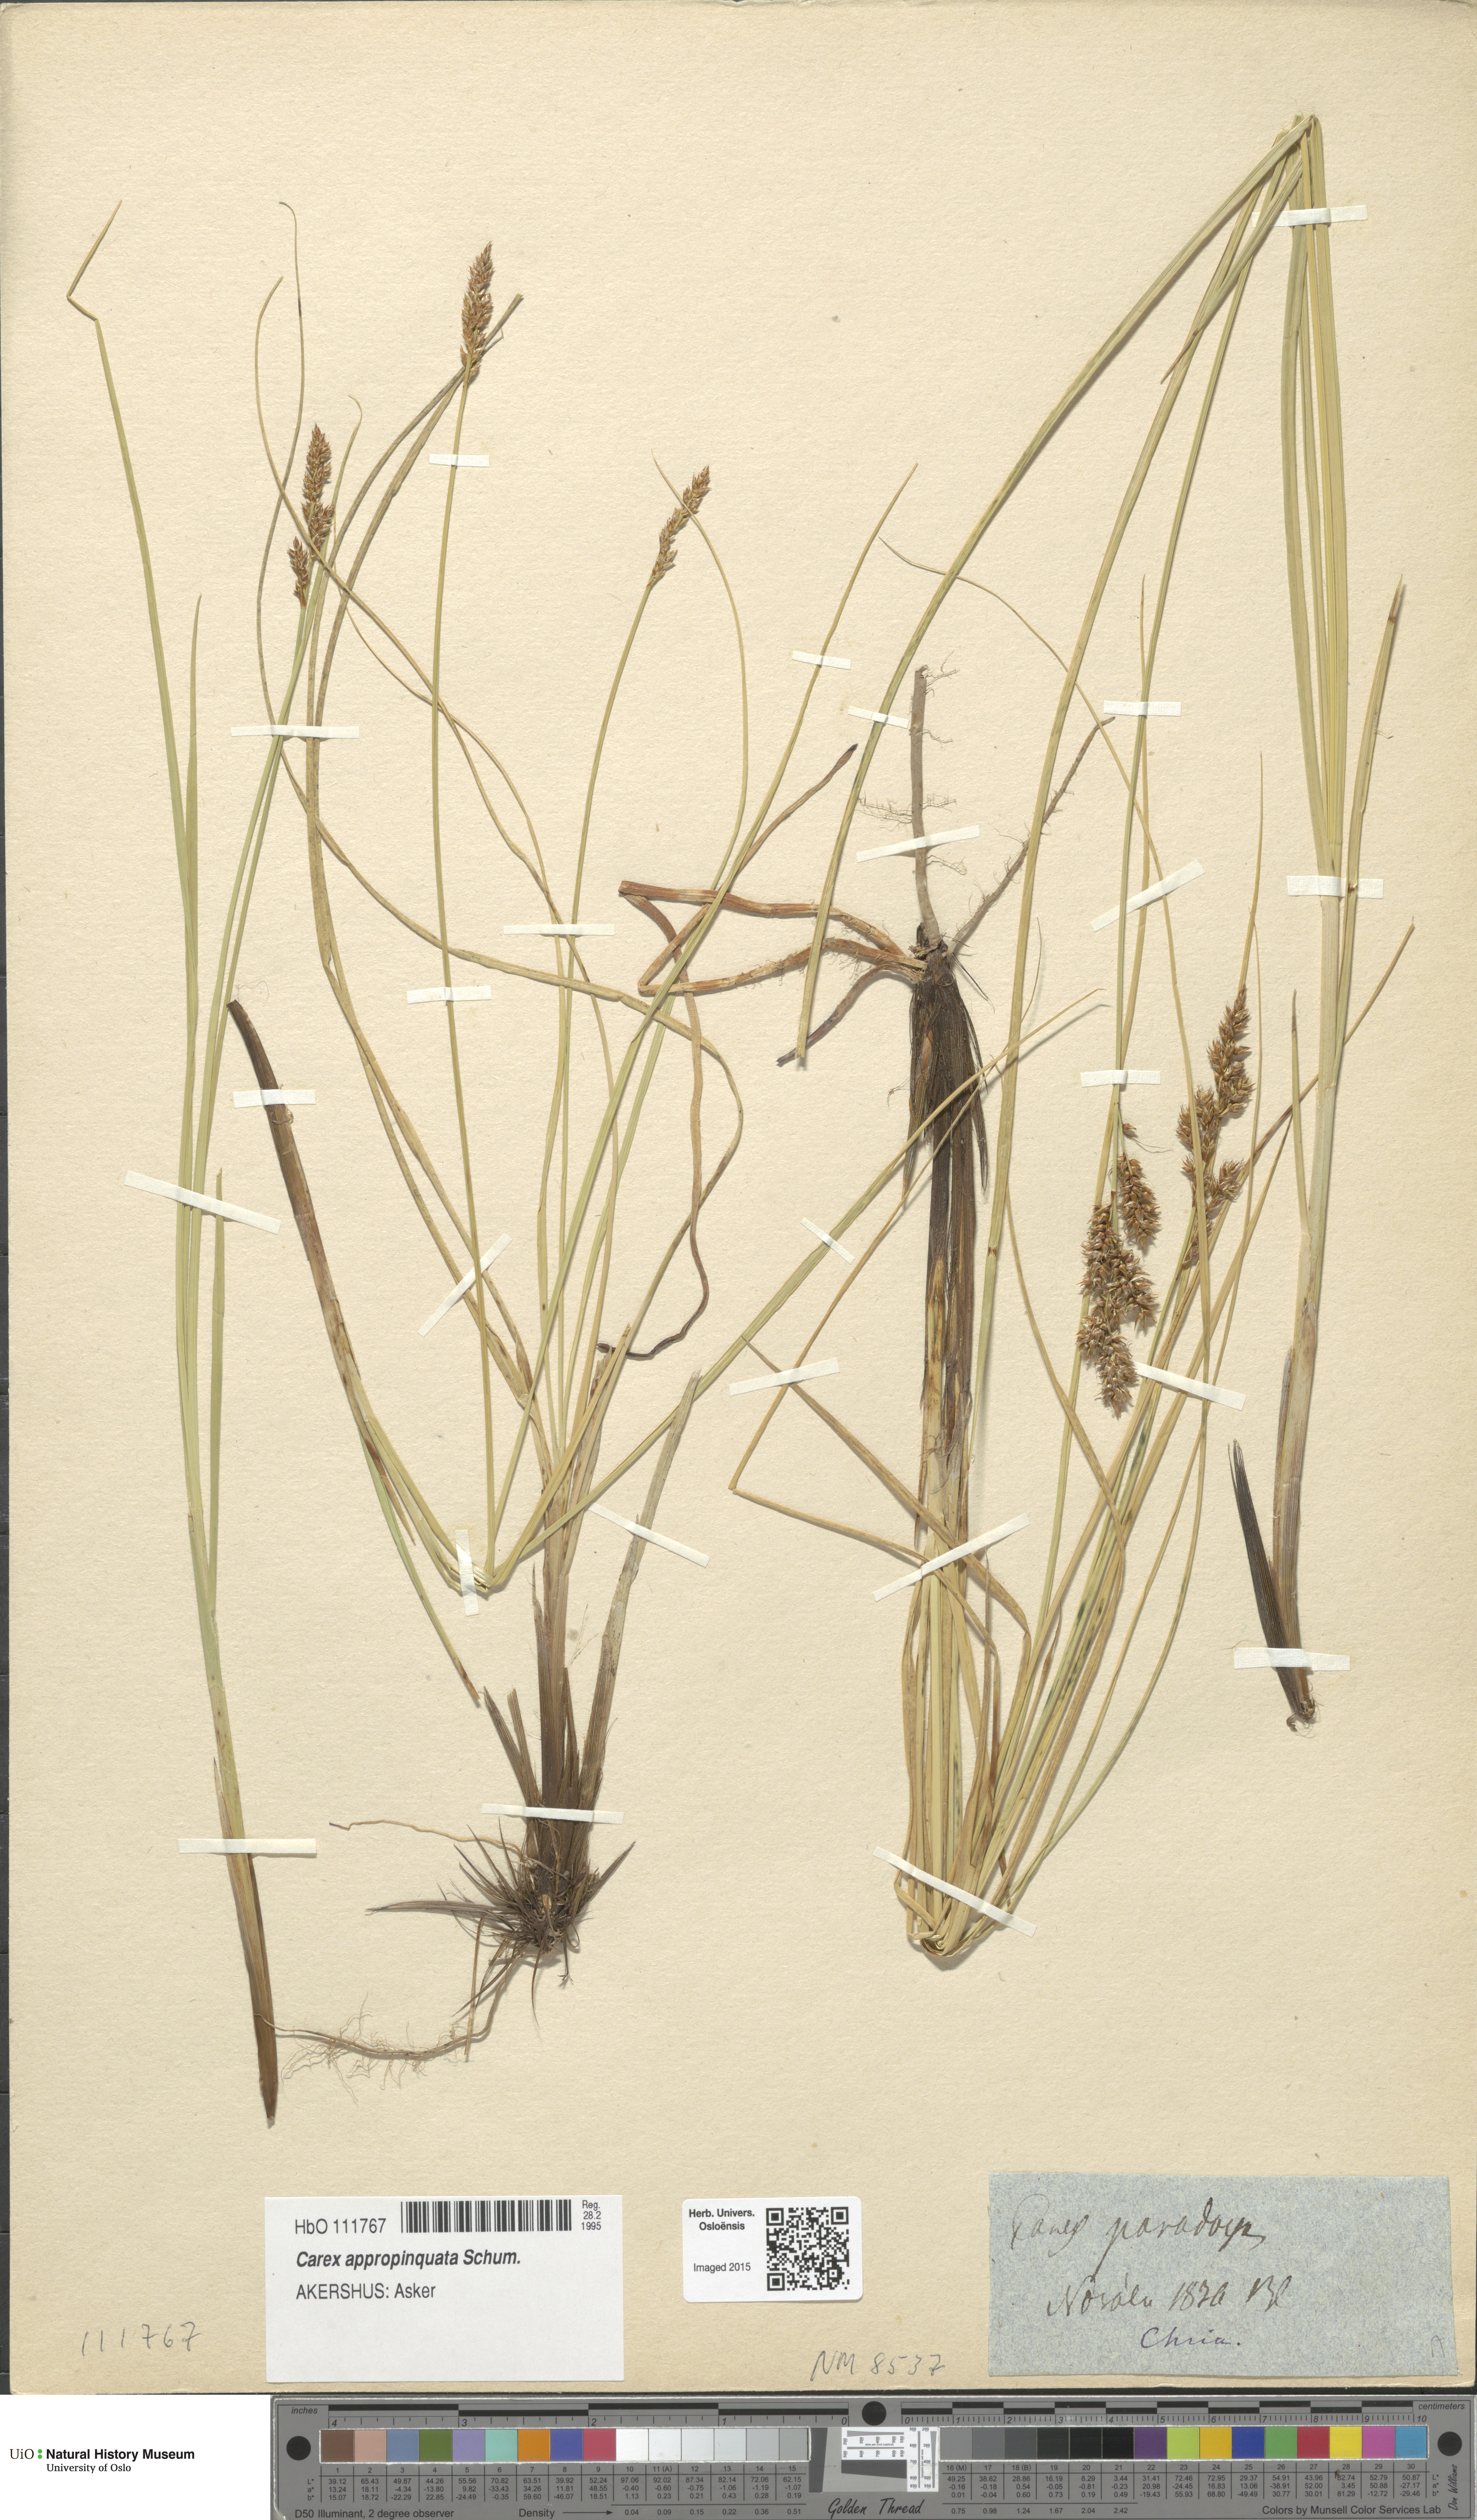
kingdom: Plantae
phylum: Tracheophyta
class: Liliopsida
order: Poales
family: Cyperaceae
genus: Carex
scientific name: Carex appropinquata
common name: Fibrous tussock-sedge
